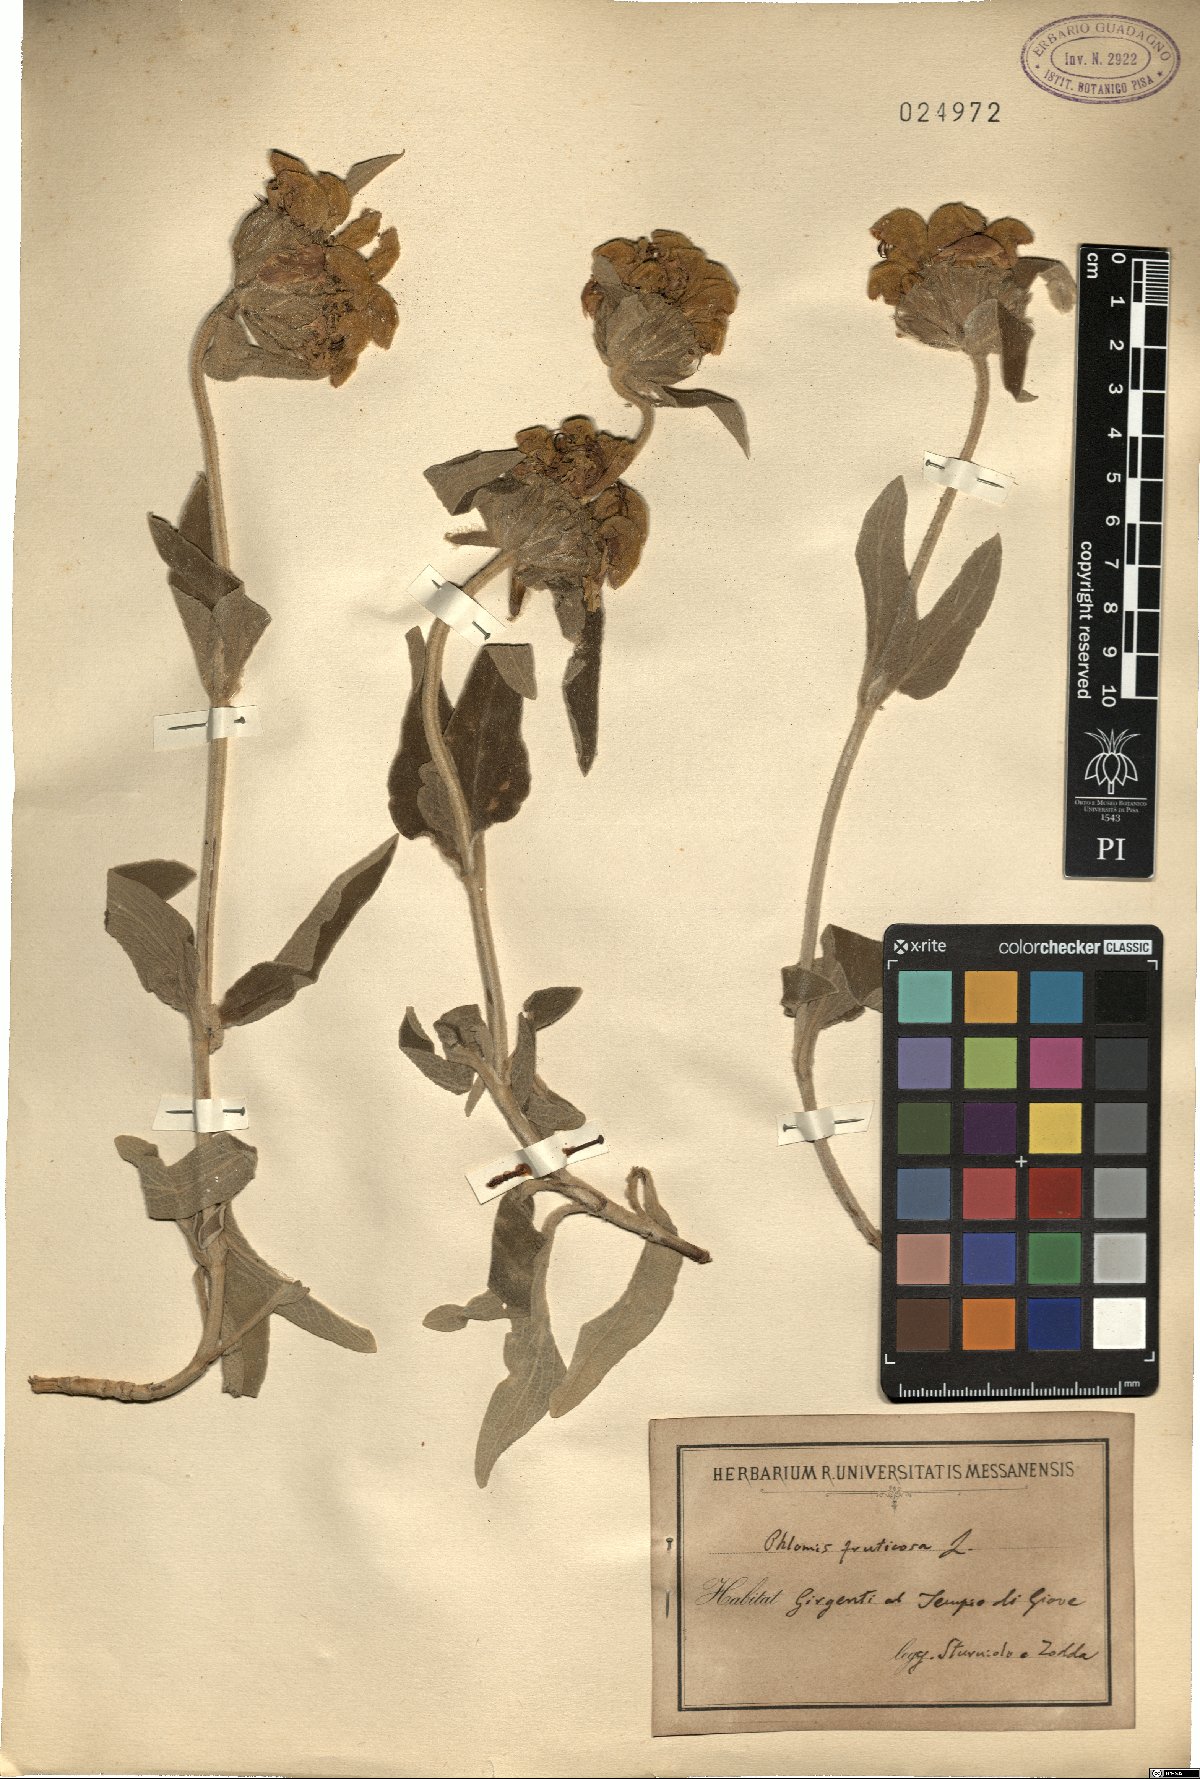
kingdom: Plantae
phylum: Tracheophyta
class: Magnoliopsida
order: Lamiales
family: Lamiaceae
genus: Phlomis
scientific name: Phlomis fruticosa
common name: Jerusalem sage
